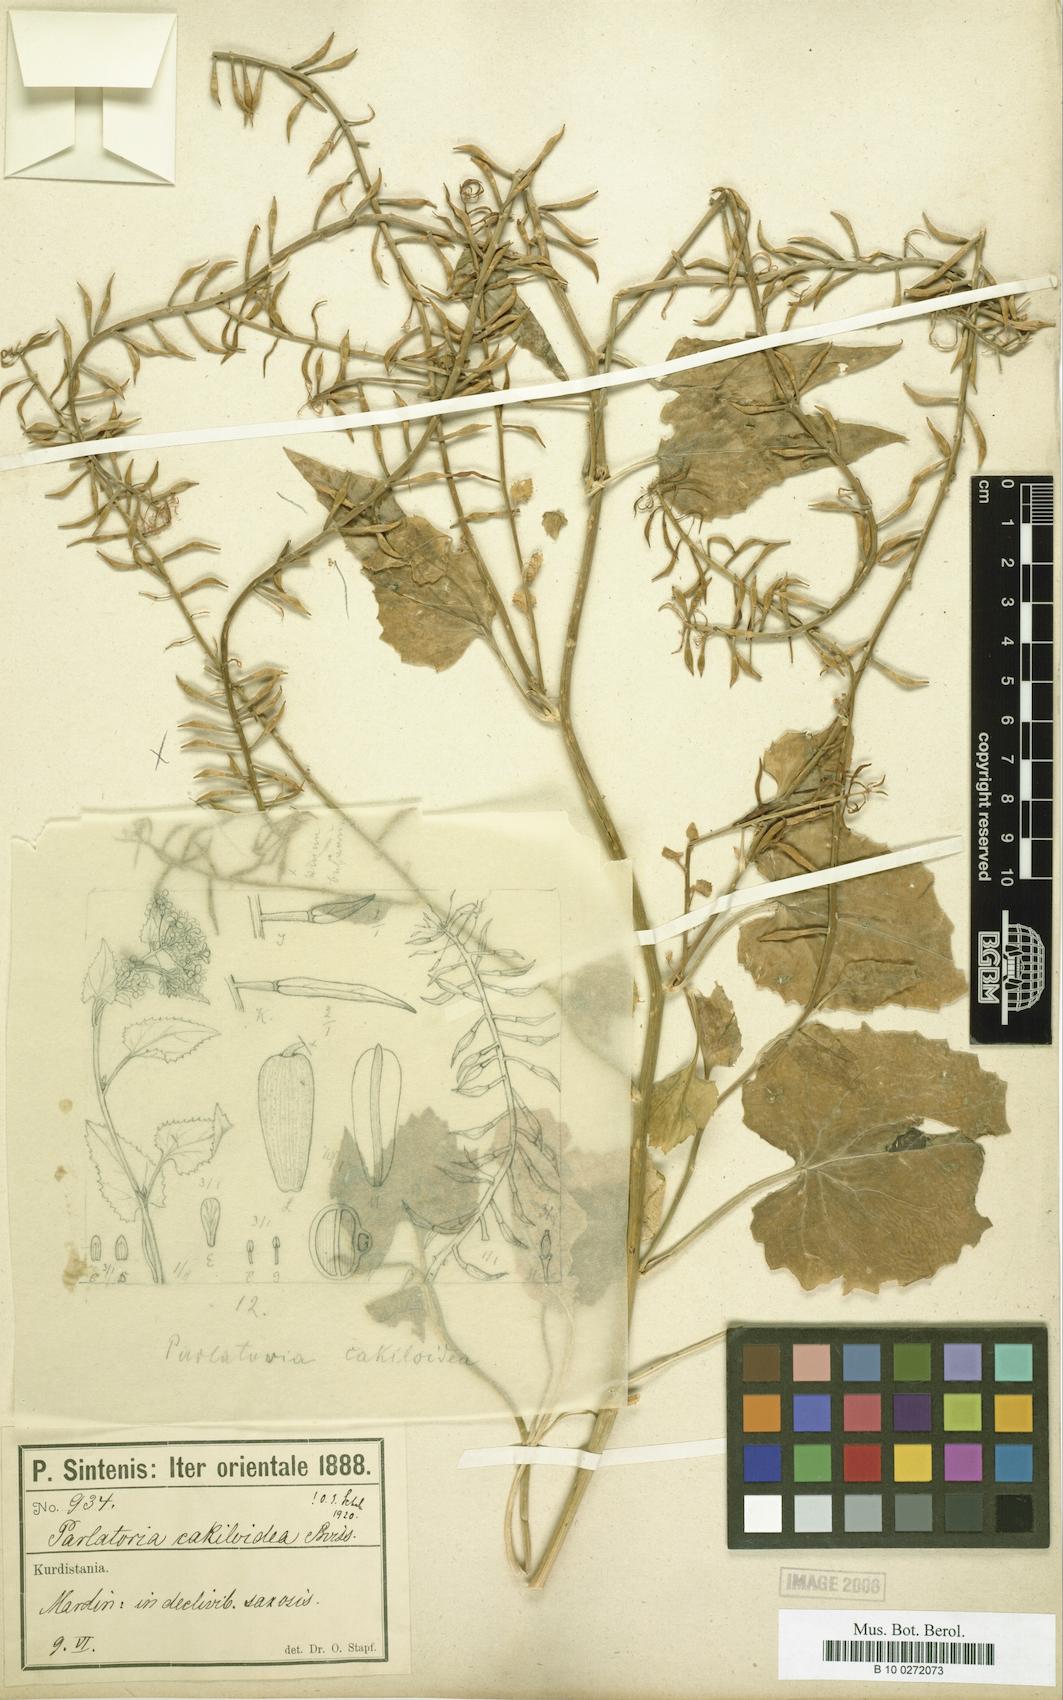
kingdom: Plantae
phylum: Tracheophyta
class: Magnoliopsida
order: Brassicales
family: Brassicaceae
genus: Parlatoria
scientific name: Parlatoria cakiloides
